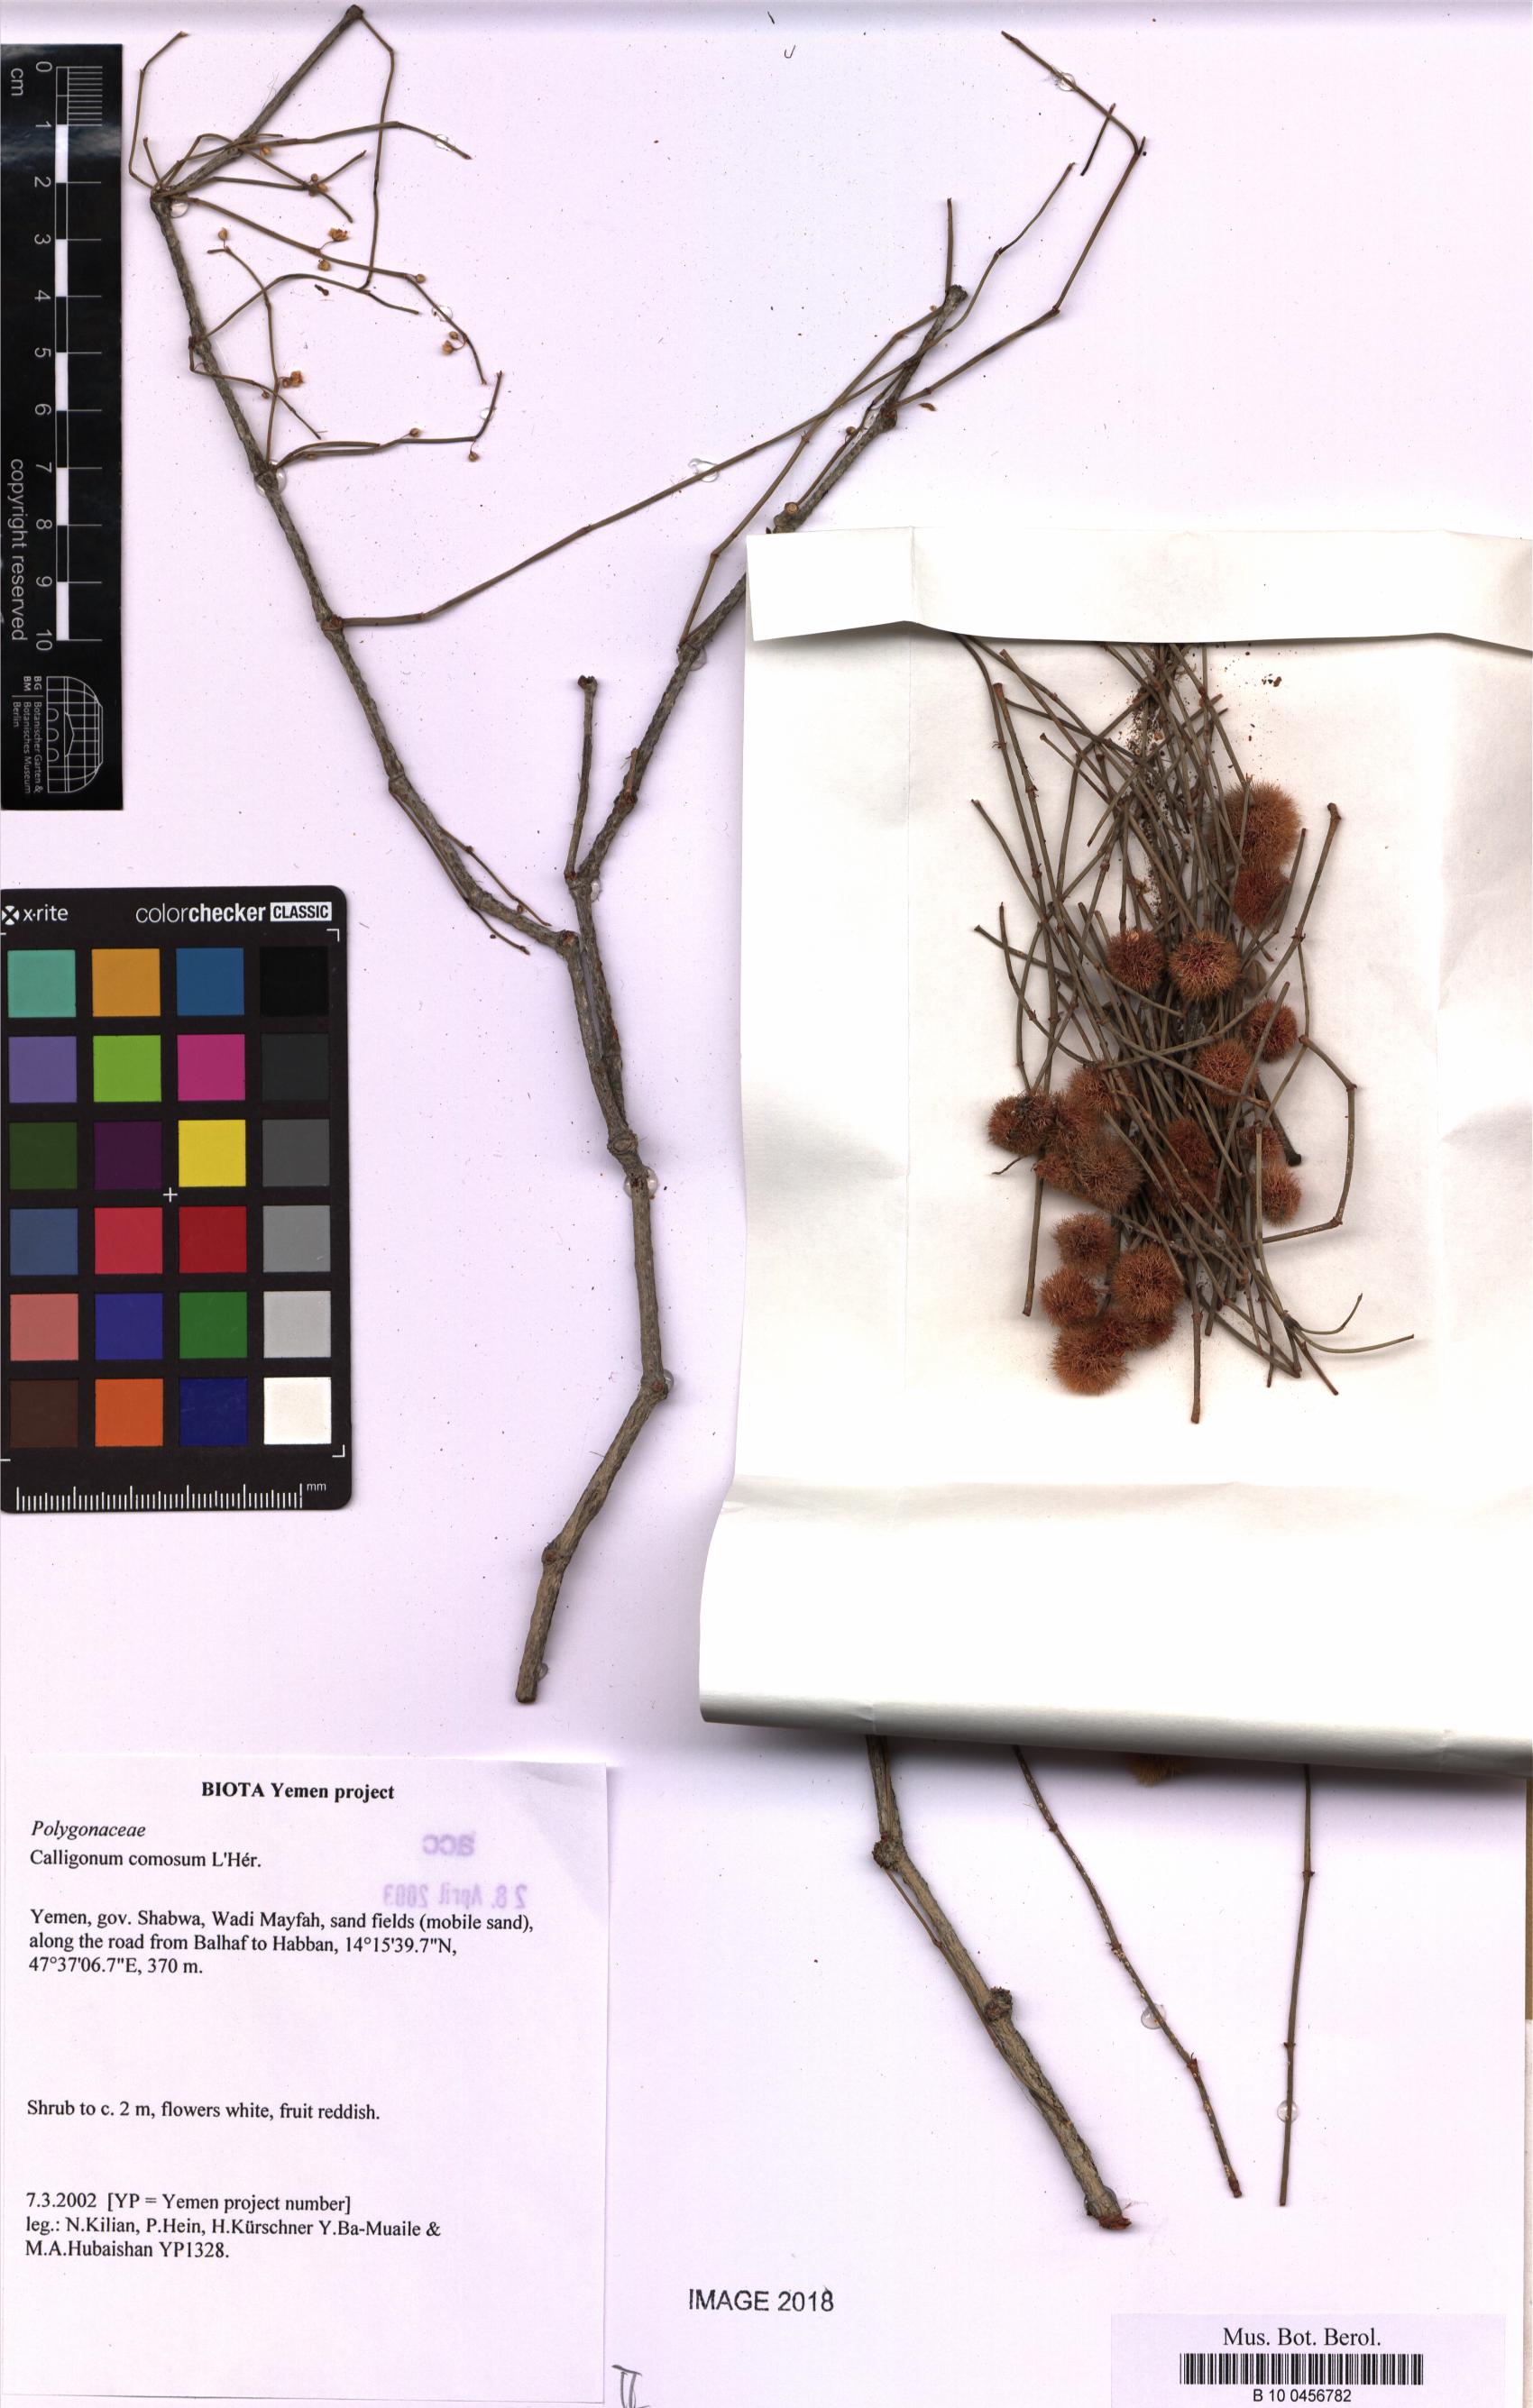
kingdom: Plantae
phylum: Tracheophyta
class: Magnoliopsida
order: Caryophyllales
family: Polygonaceae
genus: Calligonum
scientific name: Calligonum comosum
